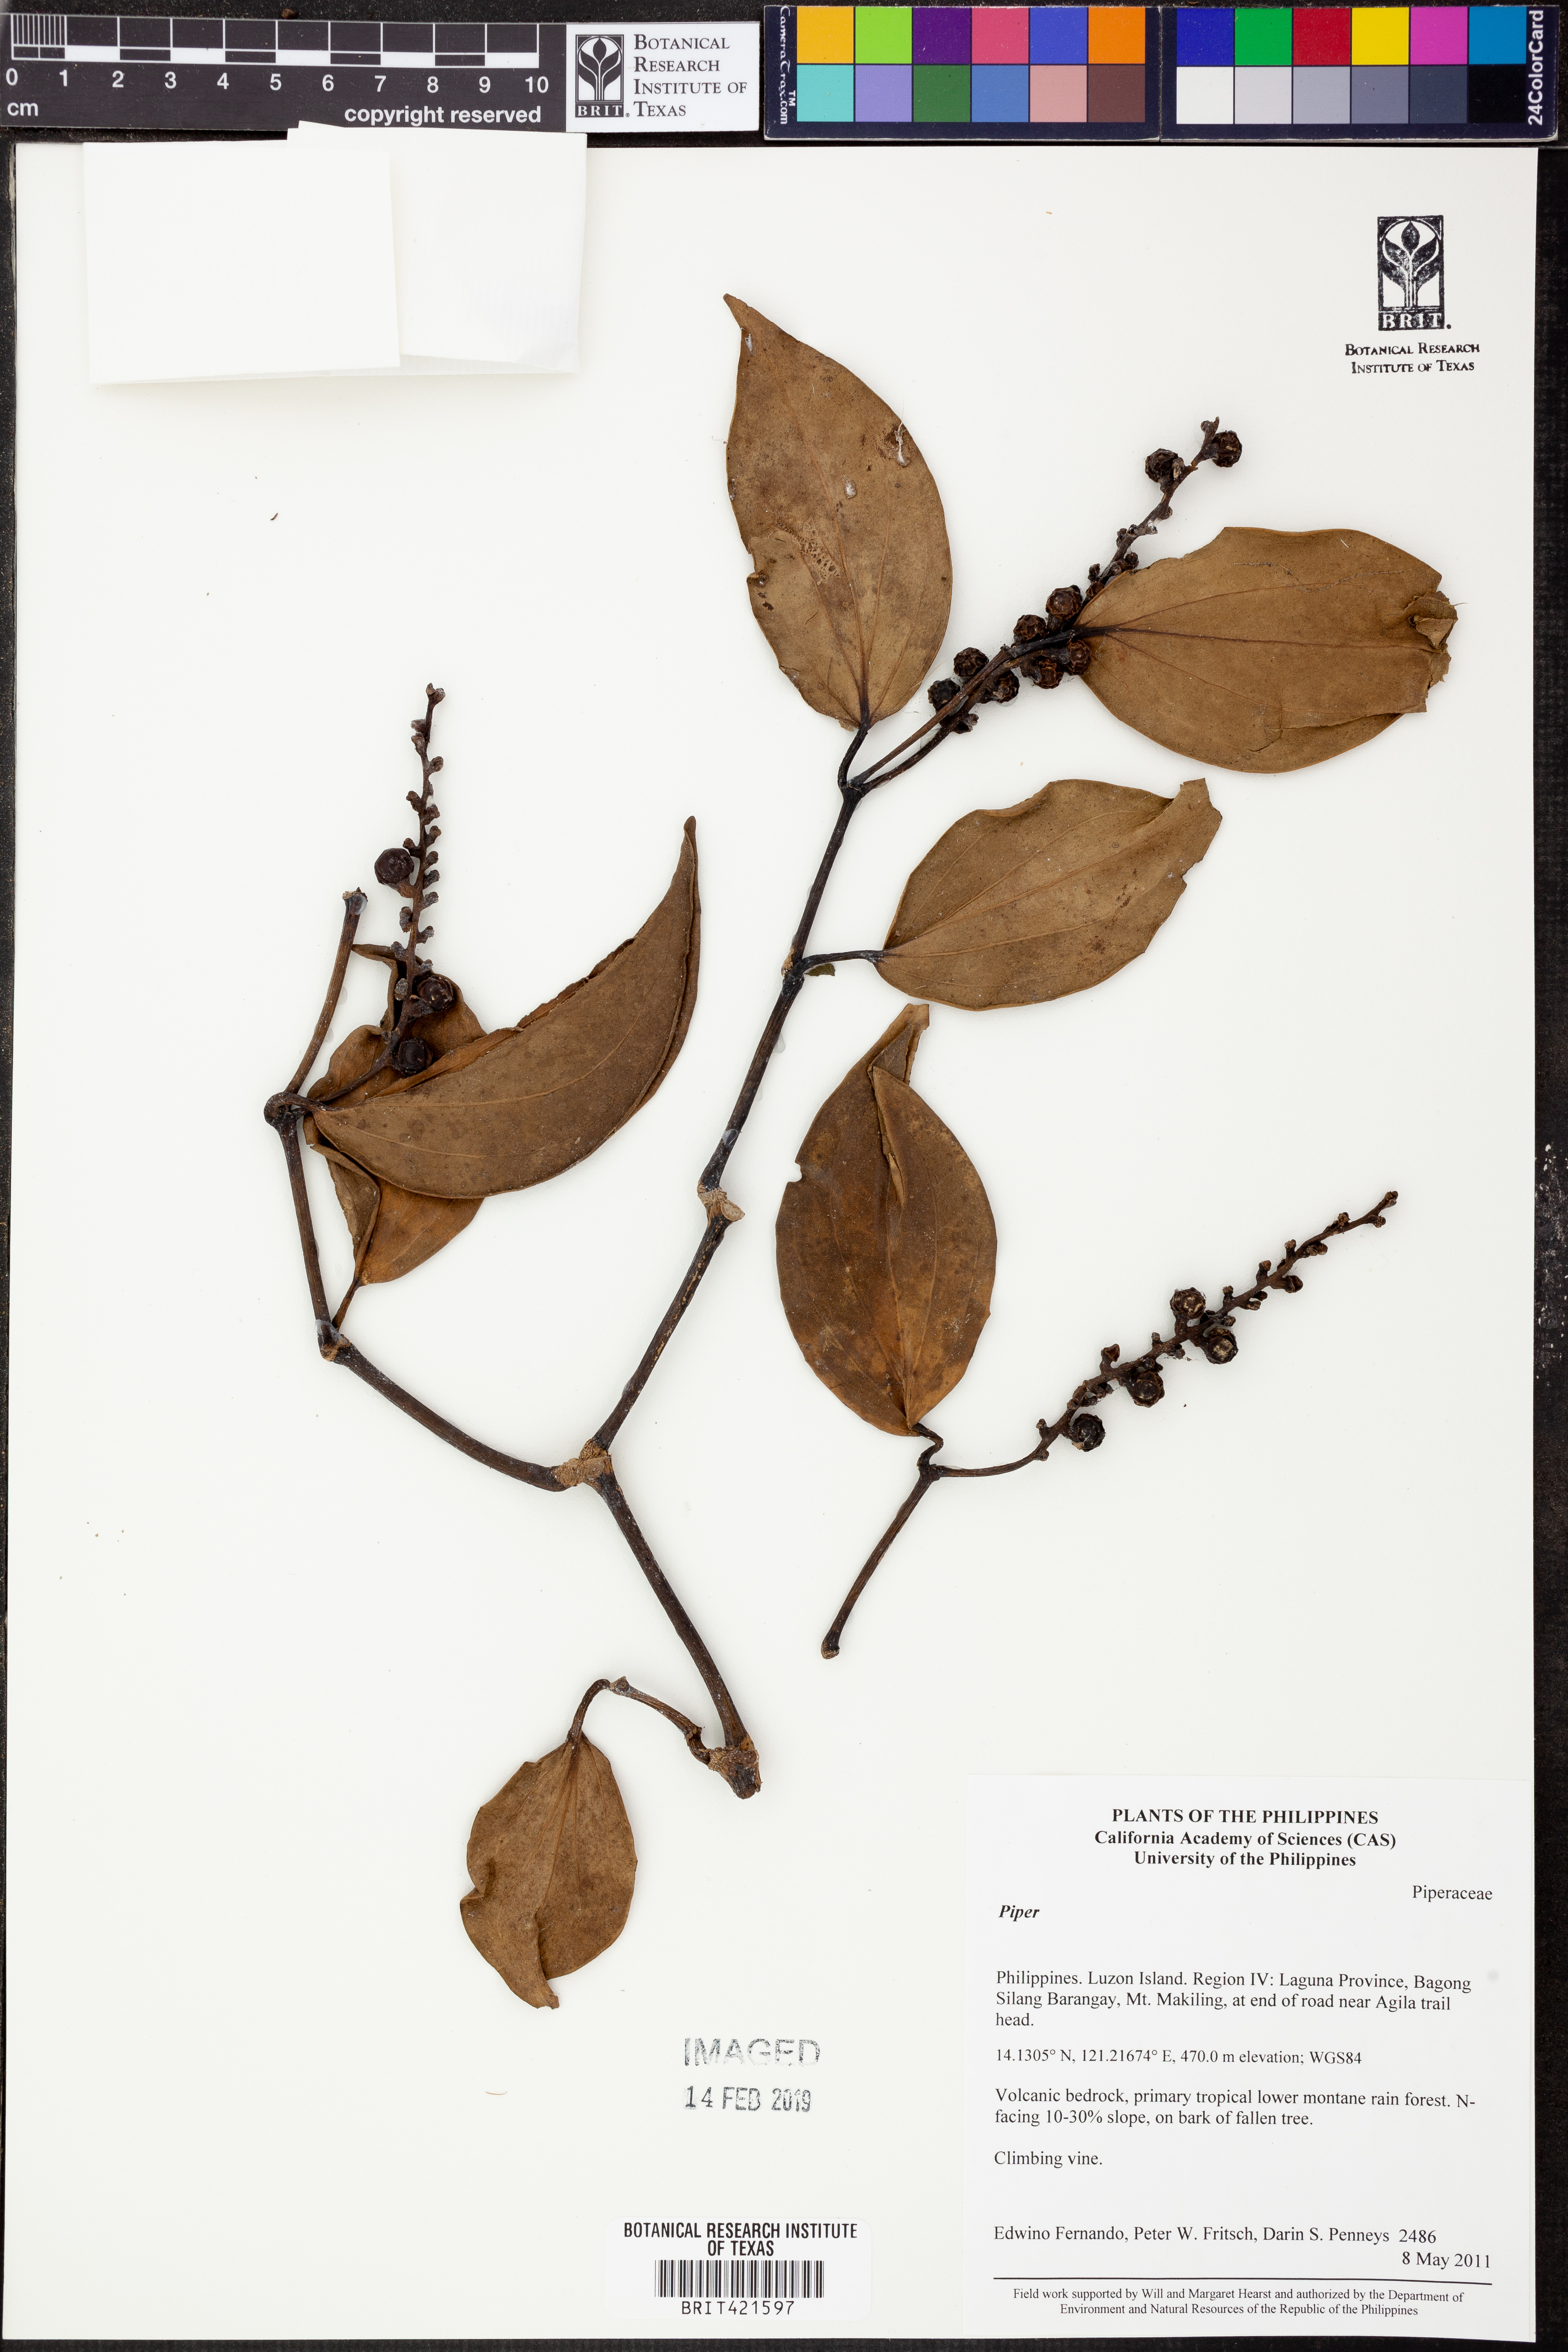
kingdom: Plantae
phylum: Tracheophyta
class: Magnoliopsida
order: Piperales
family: Piperaceae
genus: Piper
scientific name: Piper
